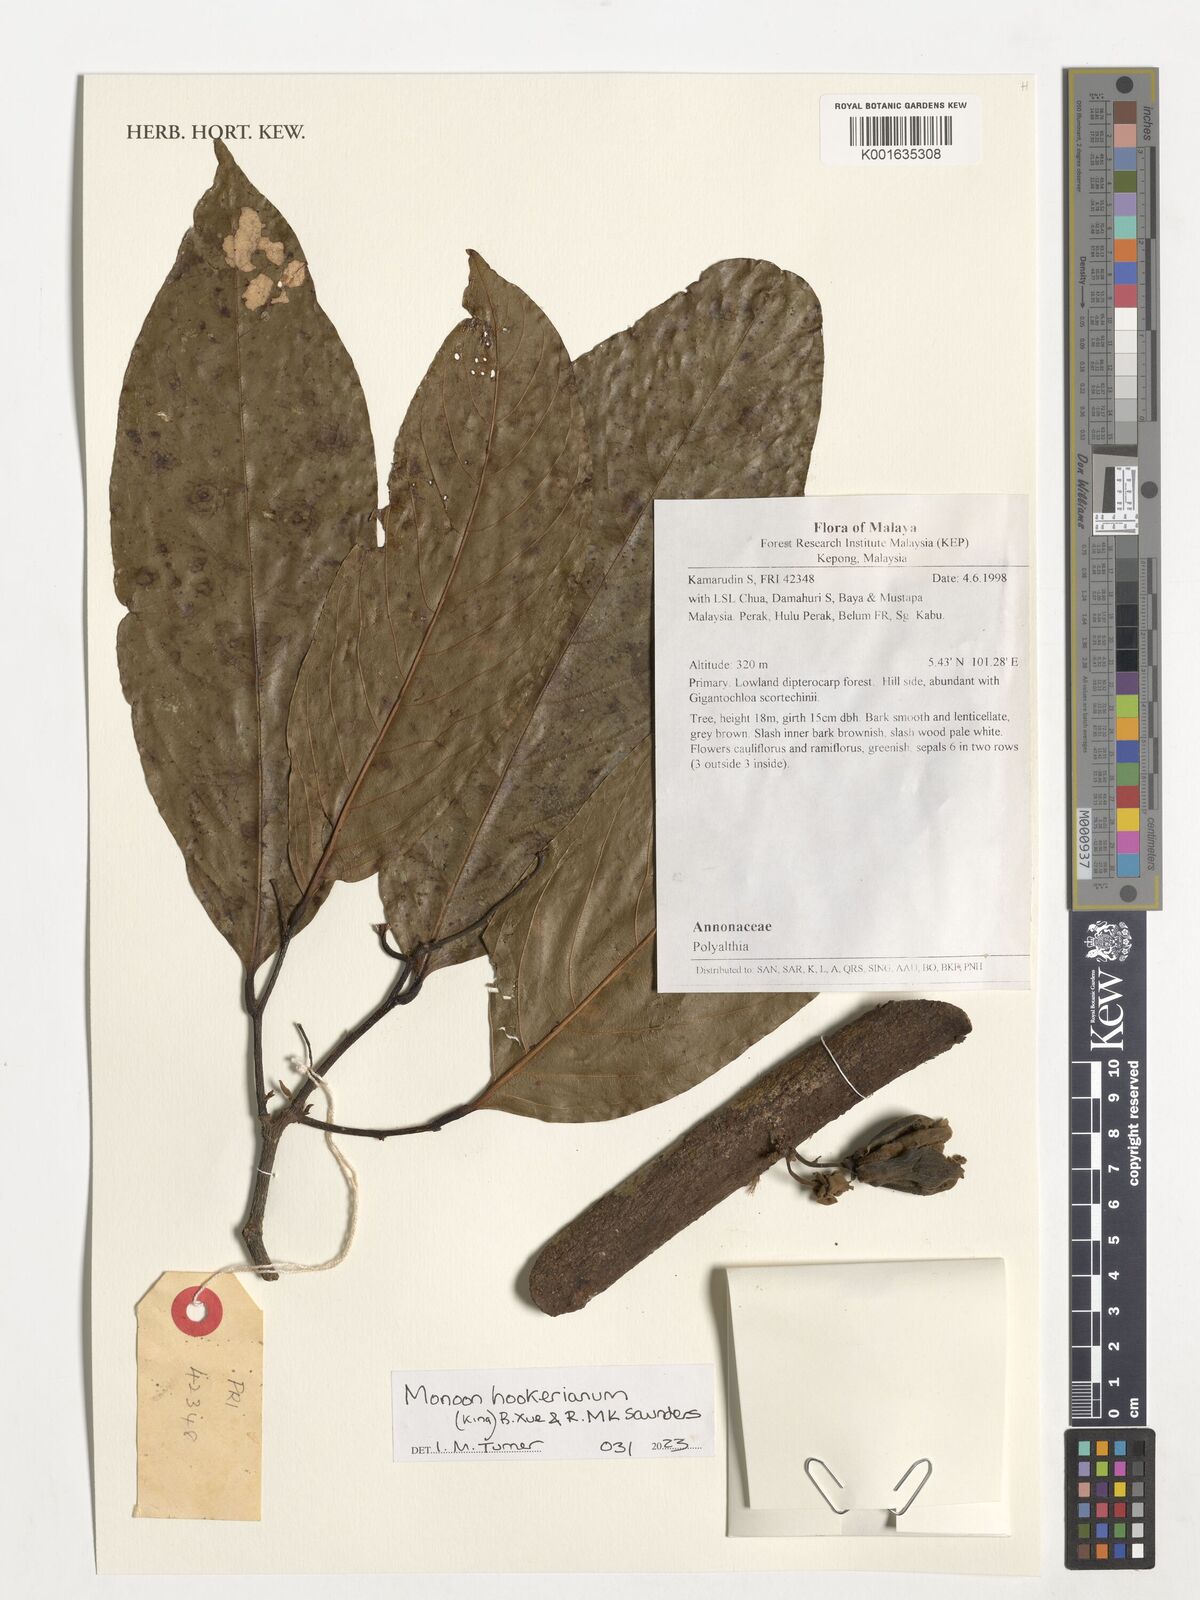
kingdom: Plantae
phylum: Tracheophyta
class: Magnoliopsida
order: Magnoliales
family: Annonaceae
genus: Polyalthia
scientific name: Polyalthia hookeriana
